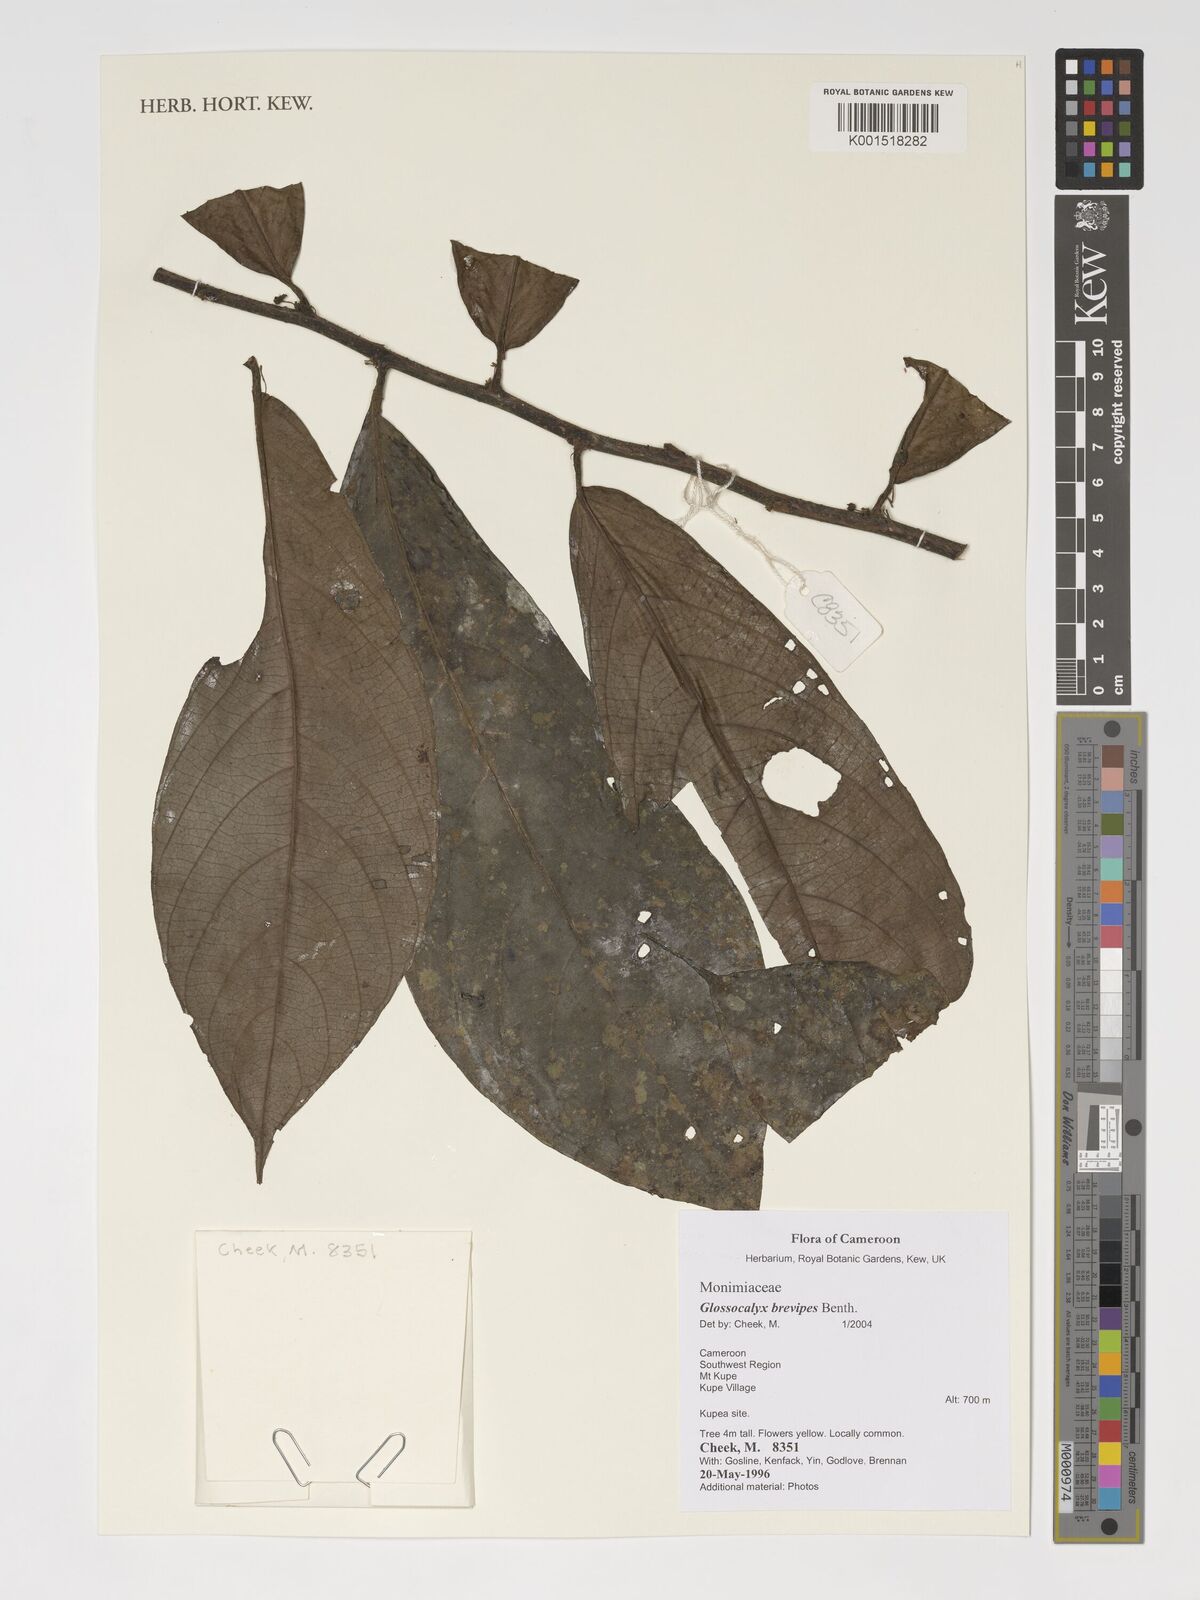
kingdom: Plantae
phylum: Tracheophyta
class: Magnoliopsida
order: Laurales
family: Siparunaceae
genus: Glossocalyx
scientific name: Glossocalyx brevipes
